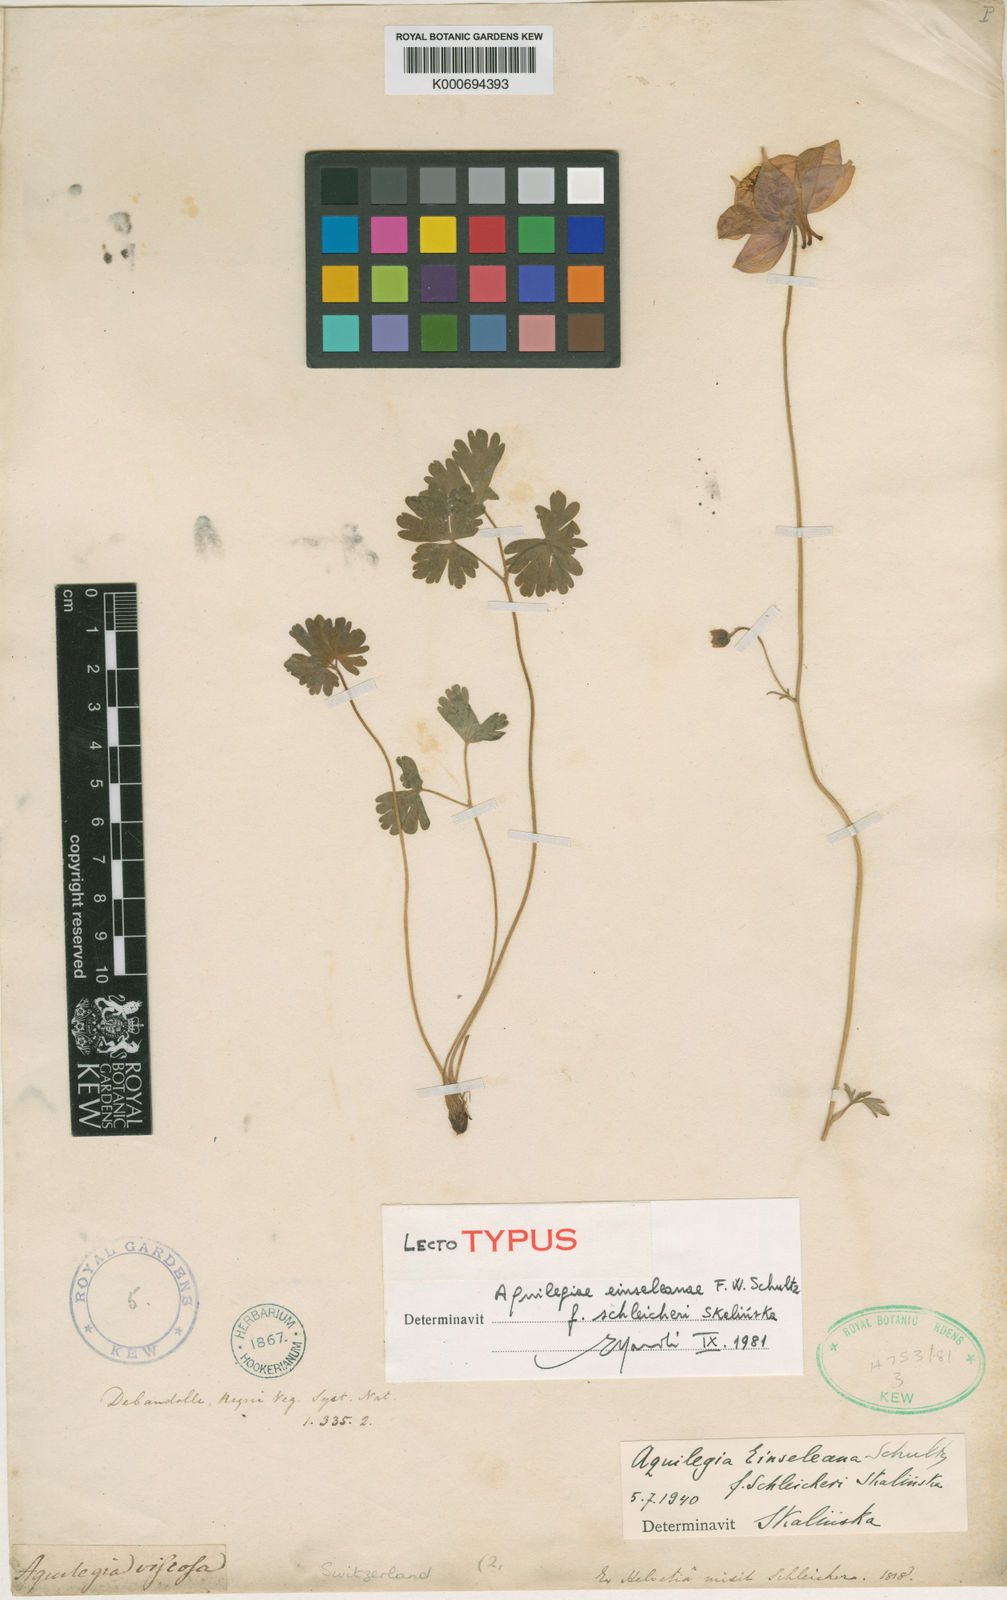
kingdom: Plantae
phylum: Tracheophyta
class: Magnoliopsida
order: Ranunculales
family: Ranunculaceae
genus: Aquilegia
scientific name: Aquilegia einseleana
